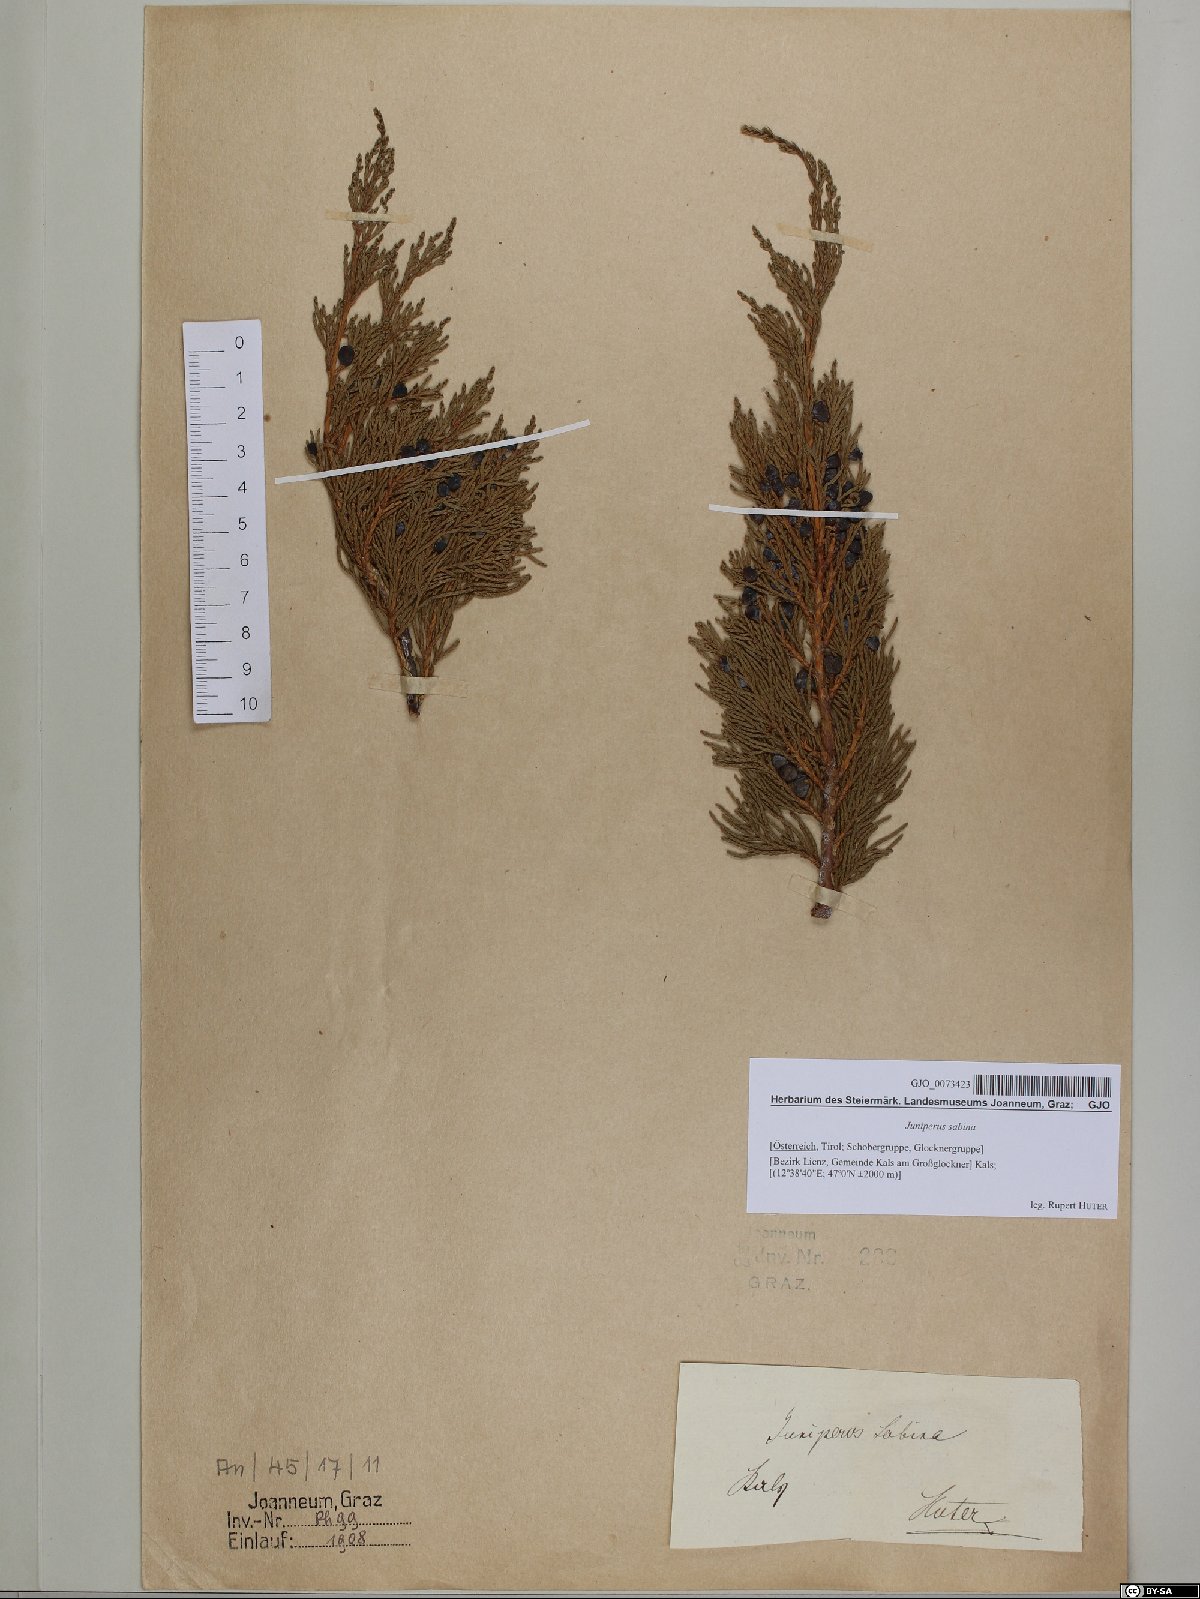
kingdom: Plantae
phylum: Tracheophyta
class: Pinopsida
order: Pinales
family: Cupressaceae
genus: Juniperus
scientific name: Juniperus sabina
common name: Savin
